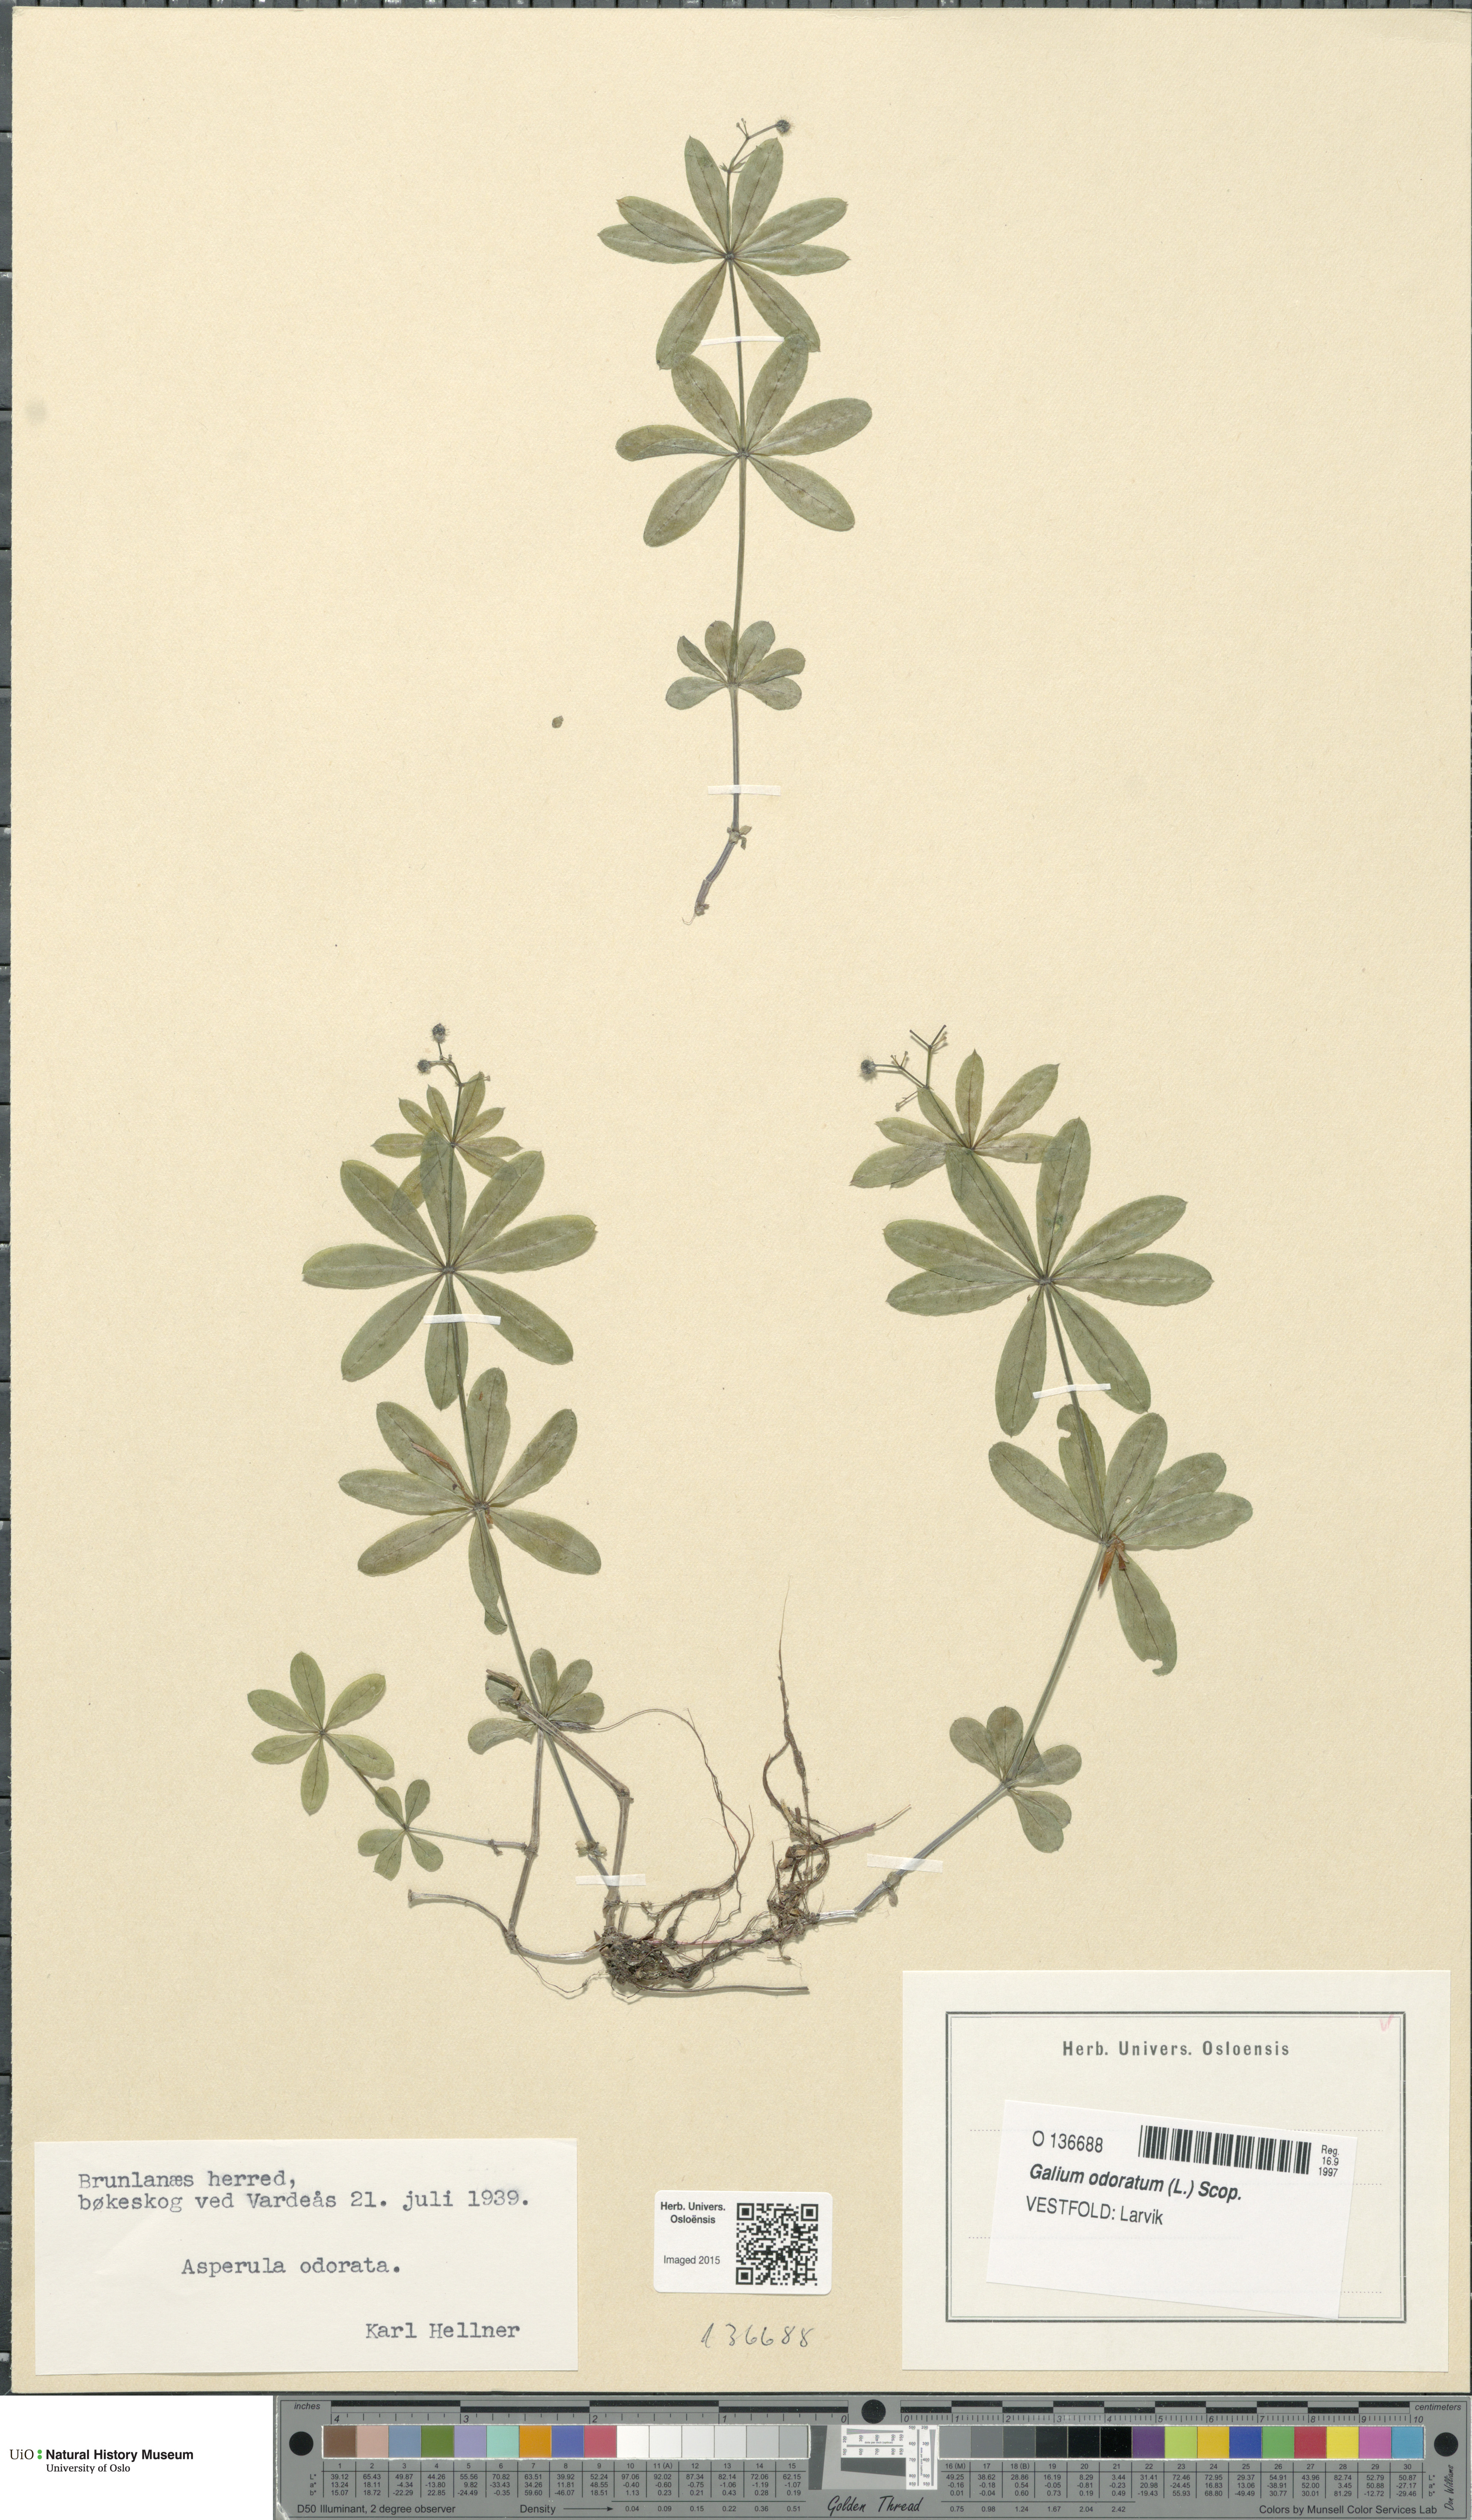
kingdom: Plantae
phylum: Tracheophyta
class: Magnoliopsida
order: Gentianales
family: Rubiaceae
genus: Galium
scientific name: Galium odoratum
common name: Sweet woodruff
